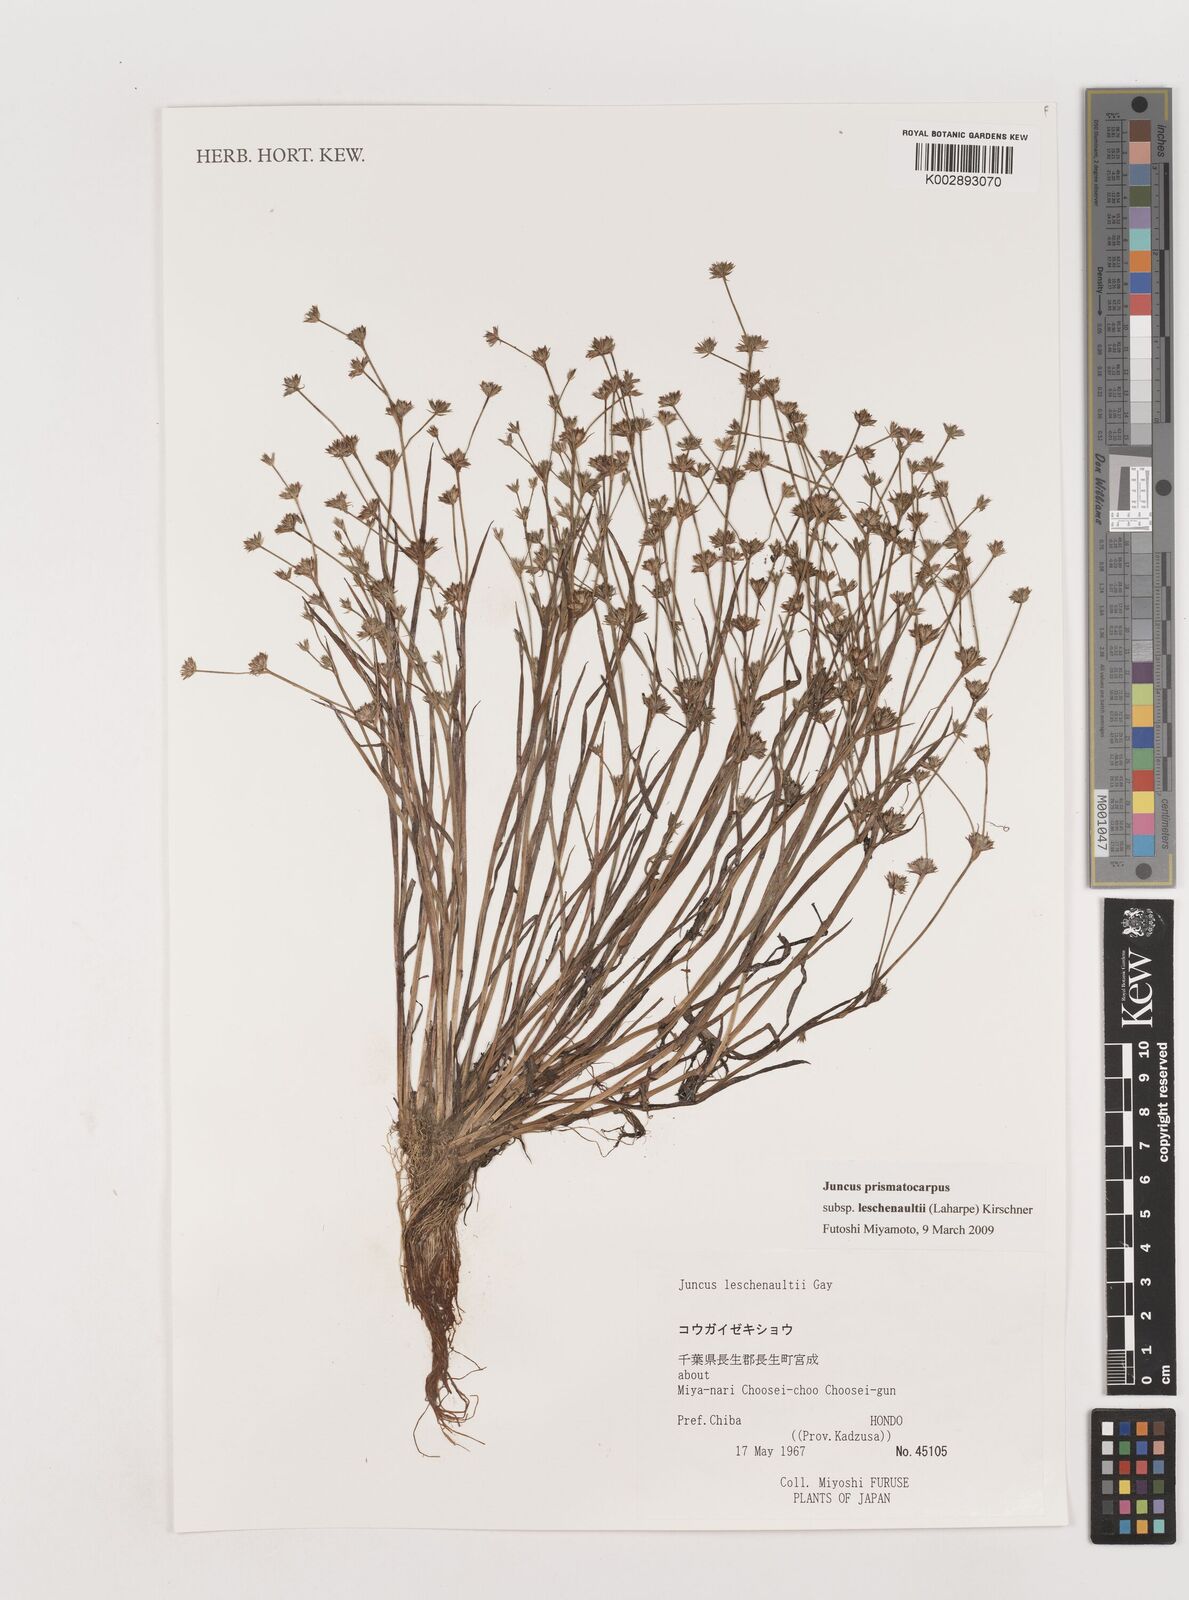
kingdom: Plantae
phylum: Tracheophyta
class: Liliopsida
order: Poales
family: Juncaceae
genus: Juncus
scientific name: Juncus prismatocarpus
